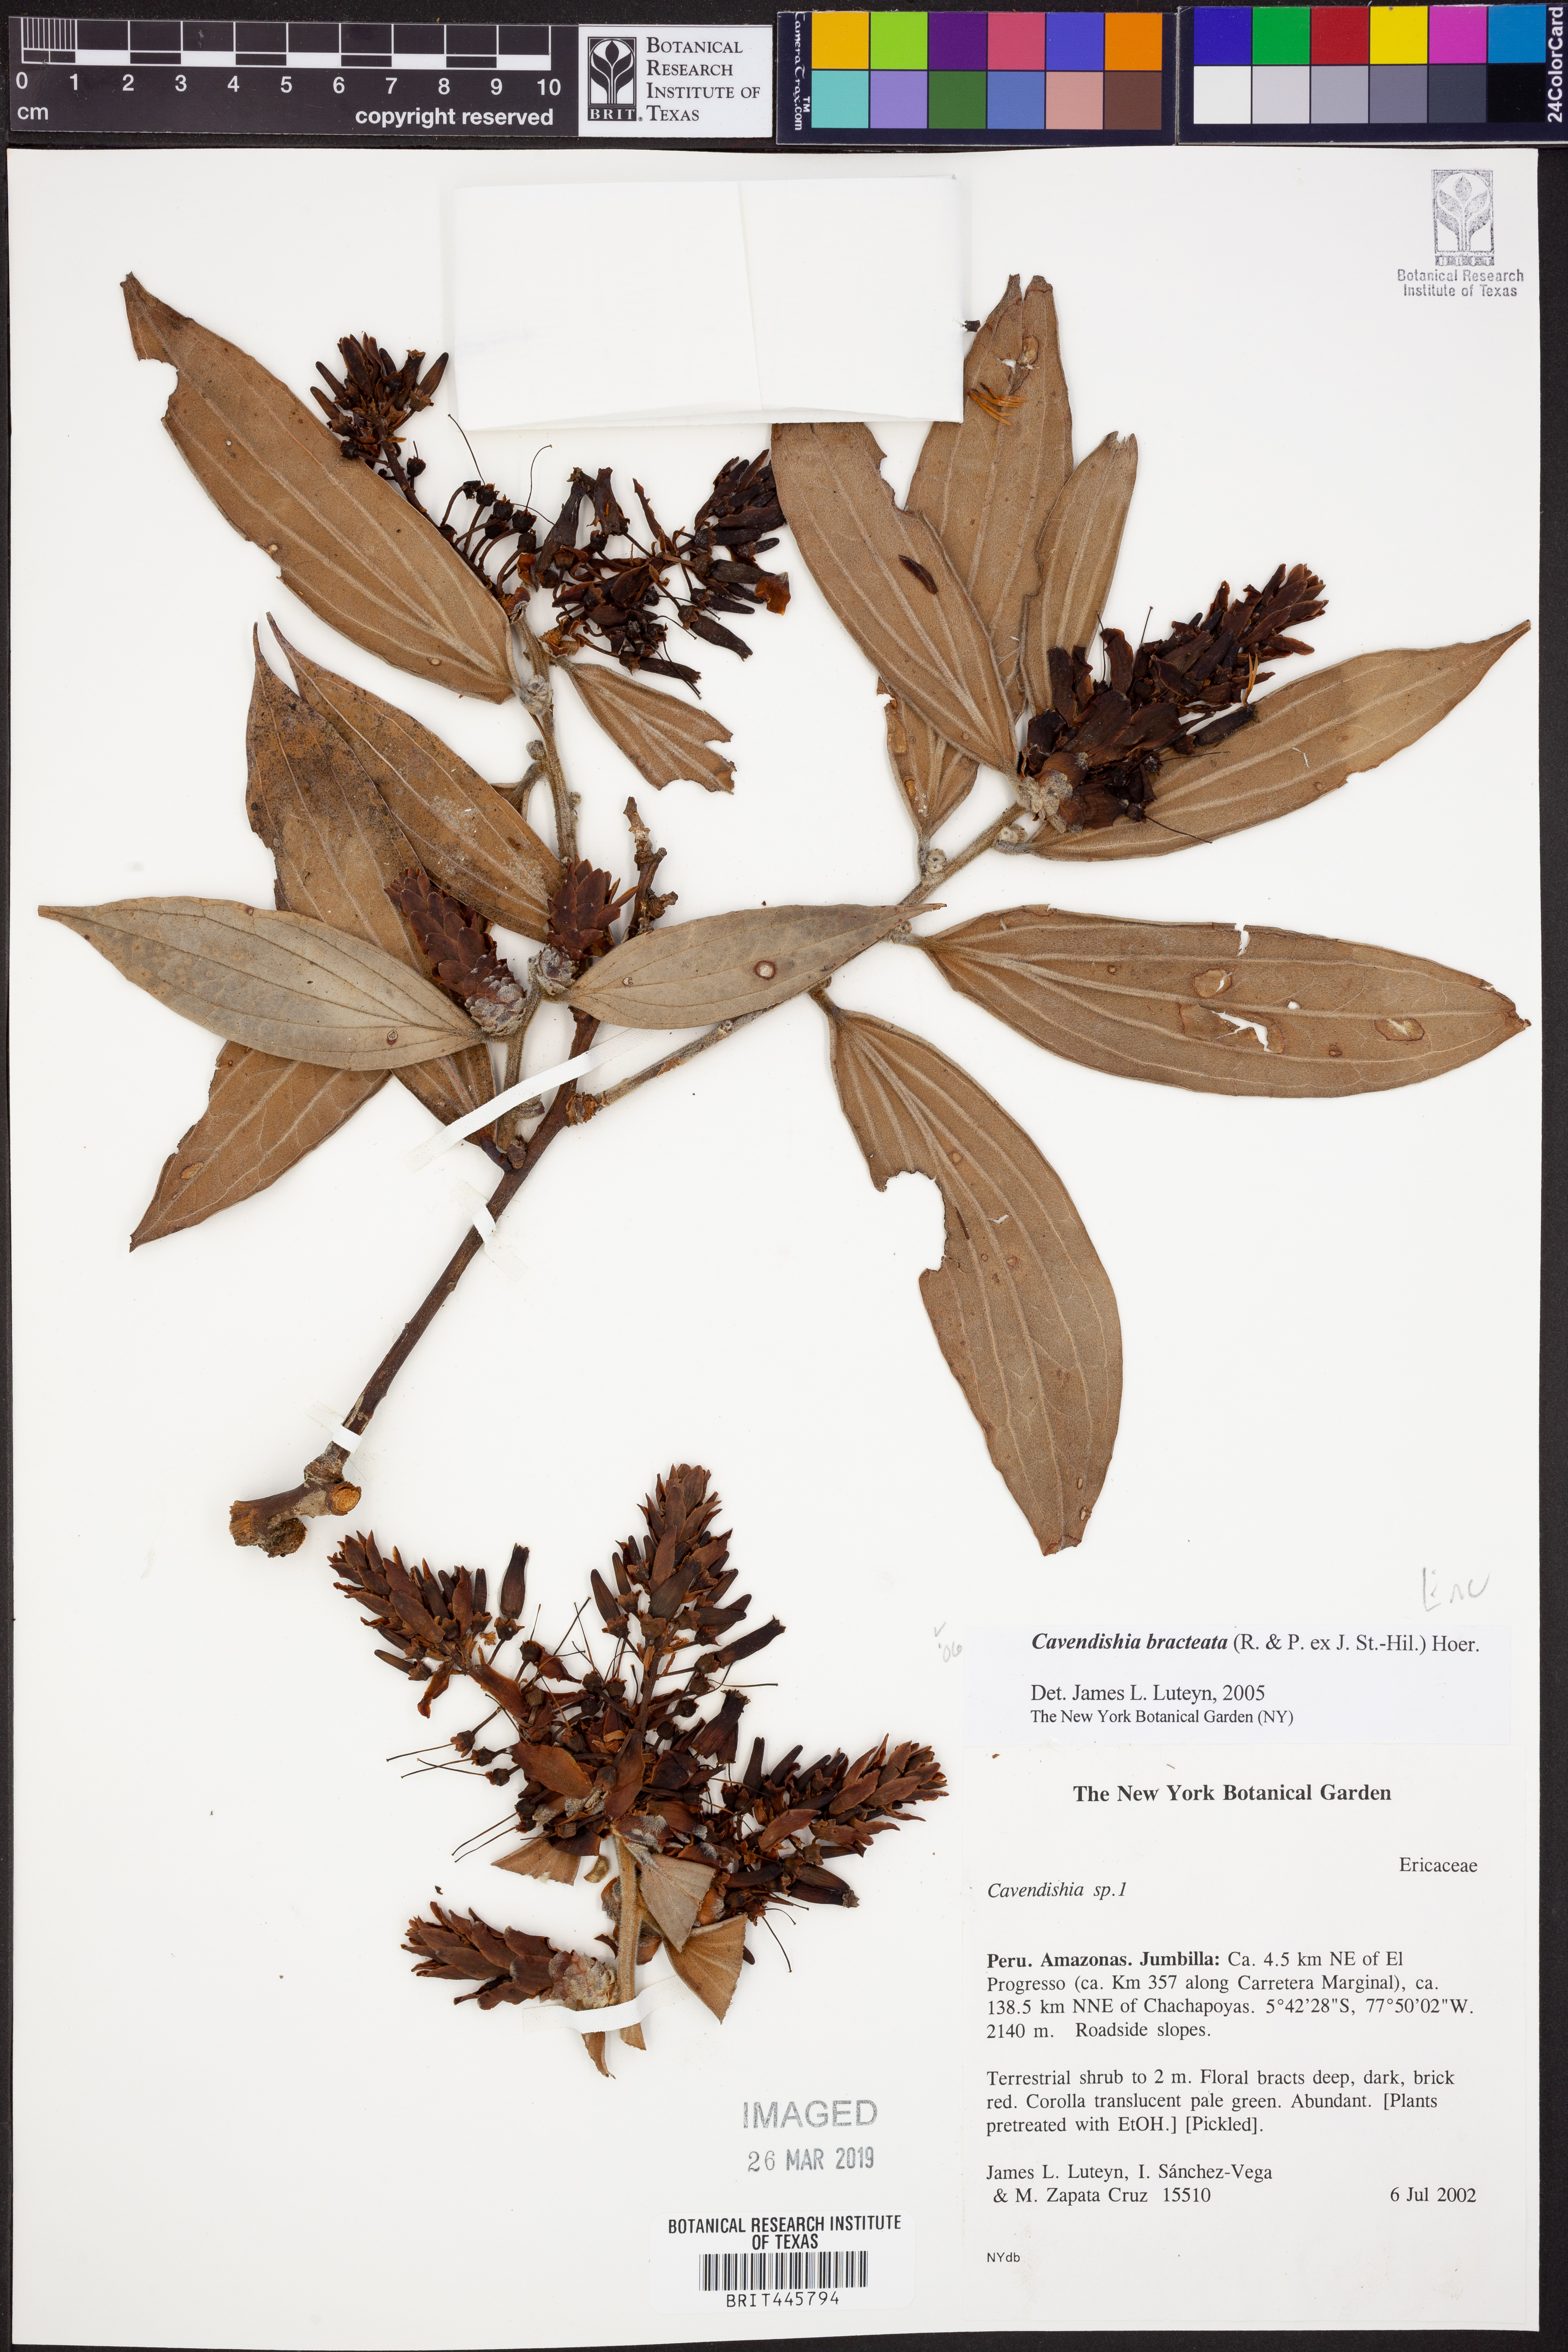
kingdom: Plantae
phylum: Tracheophyta
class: Magnoliopsida
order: Ericales
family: Ericaceae
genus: Cavendishia
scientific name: Cavendishia bracteata
